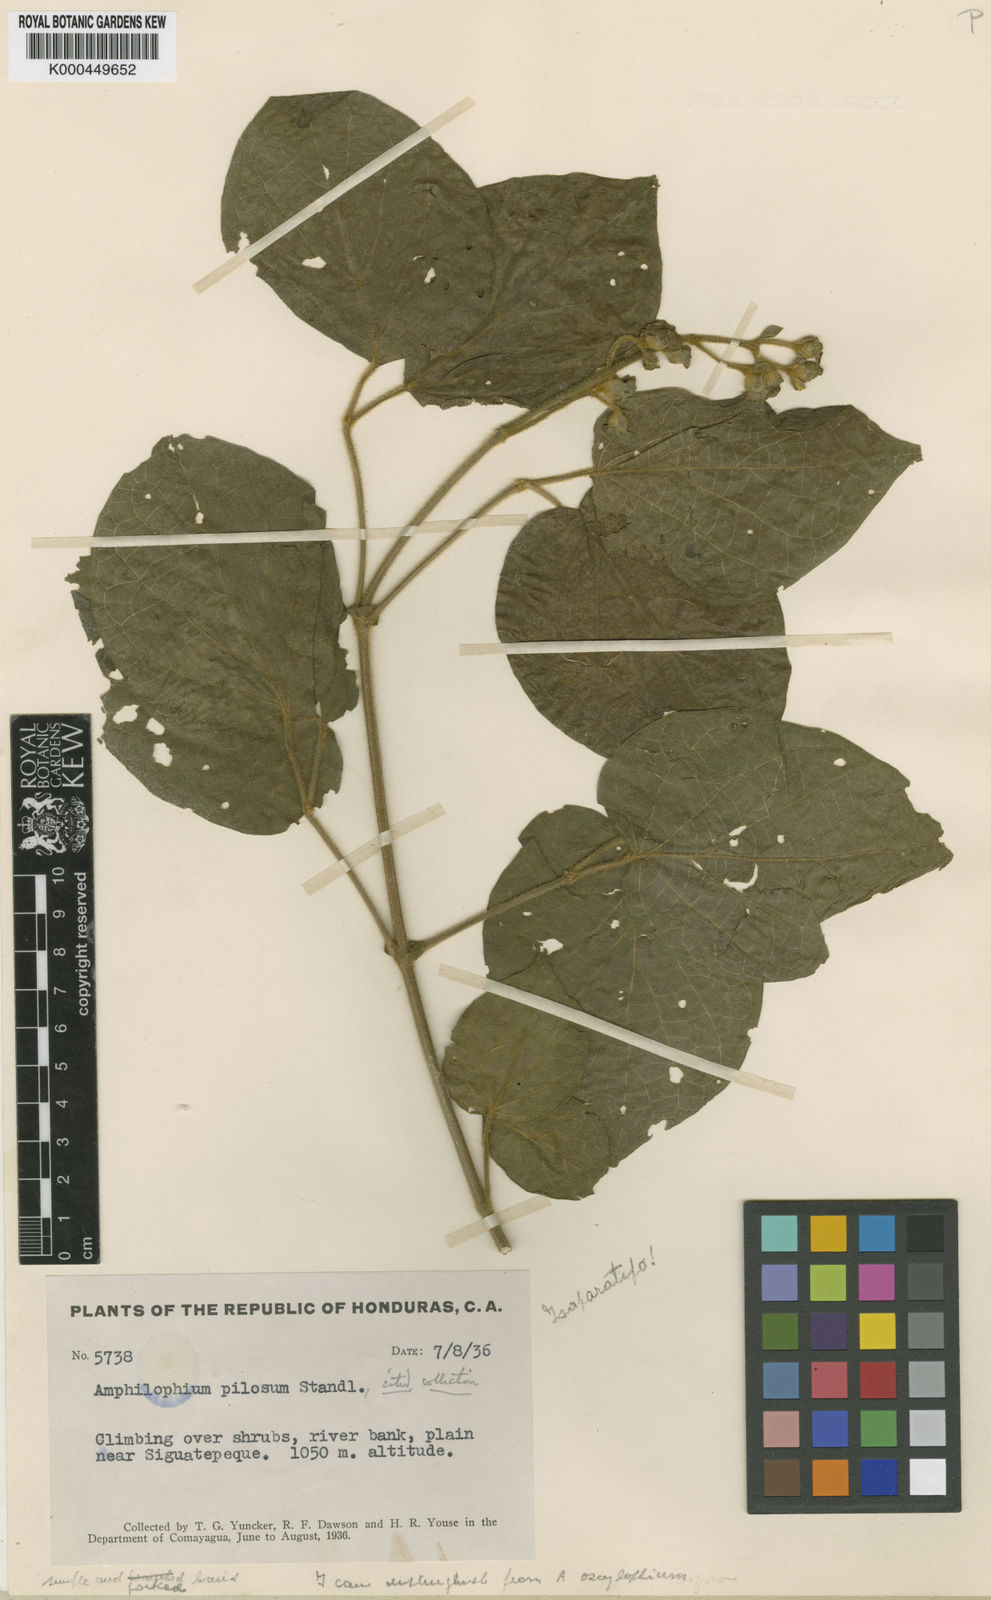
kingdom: Plantae
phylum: Tracheophyta
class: Magnoliopsida
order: Lamiales
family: Bignoniaceae
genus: Amphilophium
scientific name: Amphilophium pilosum
